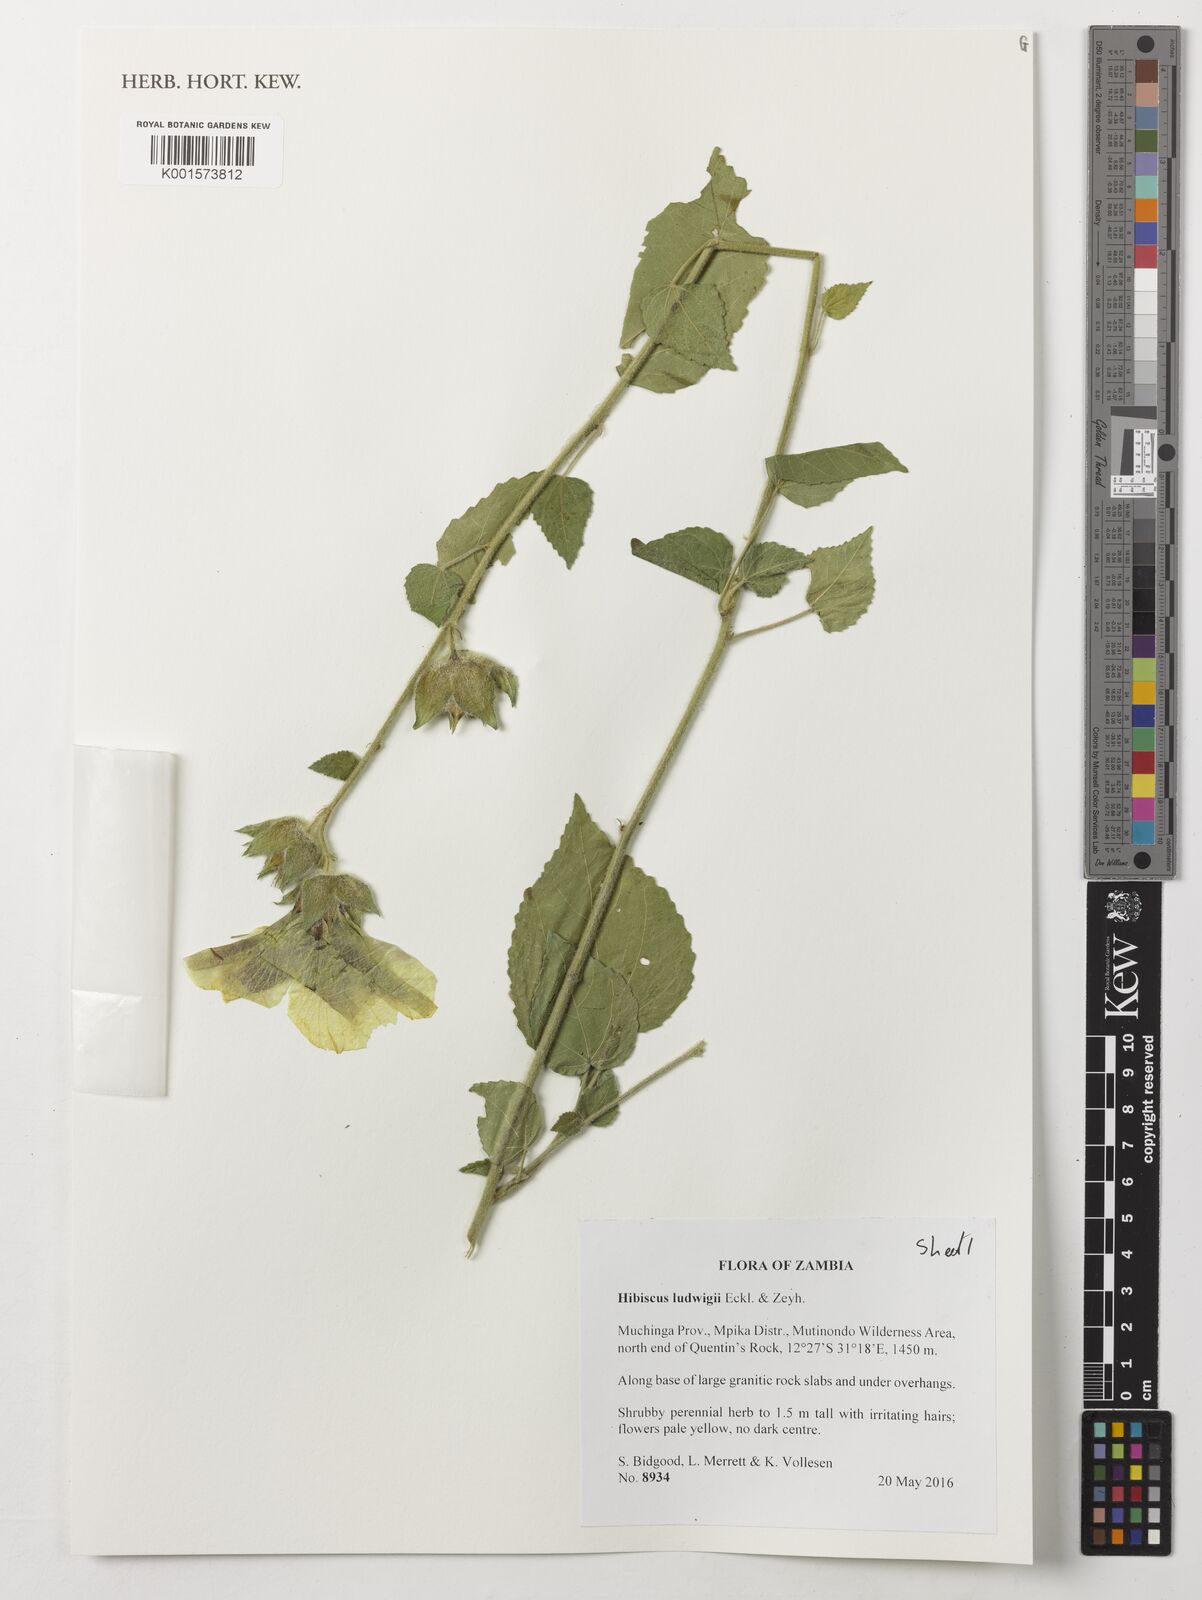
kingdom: Plantae
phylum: Tracheophyta
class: Magnoliopsida
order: Malvales
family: Malvaceae
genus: Hibiscus
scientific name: Hibiscus ludwigii
